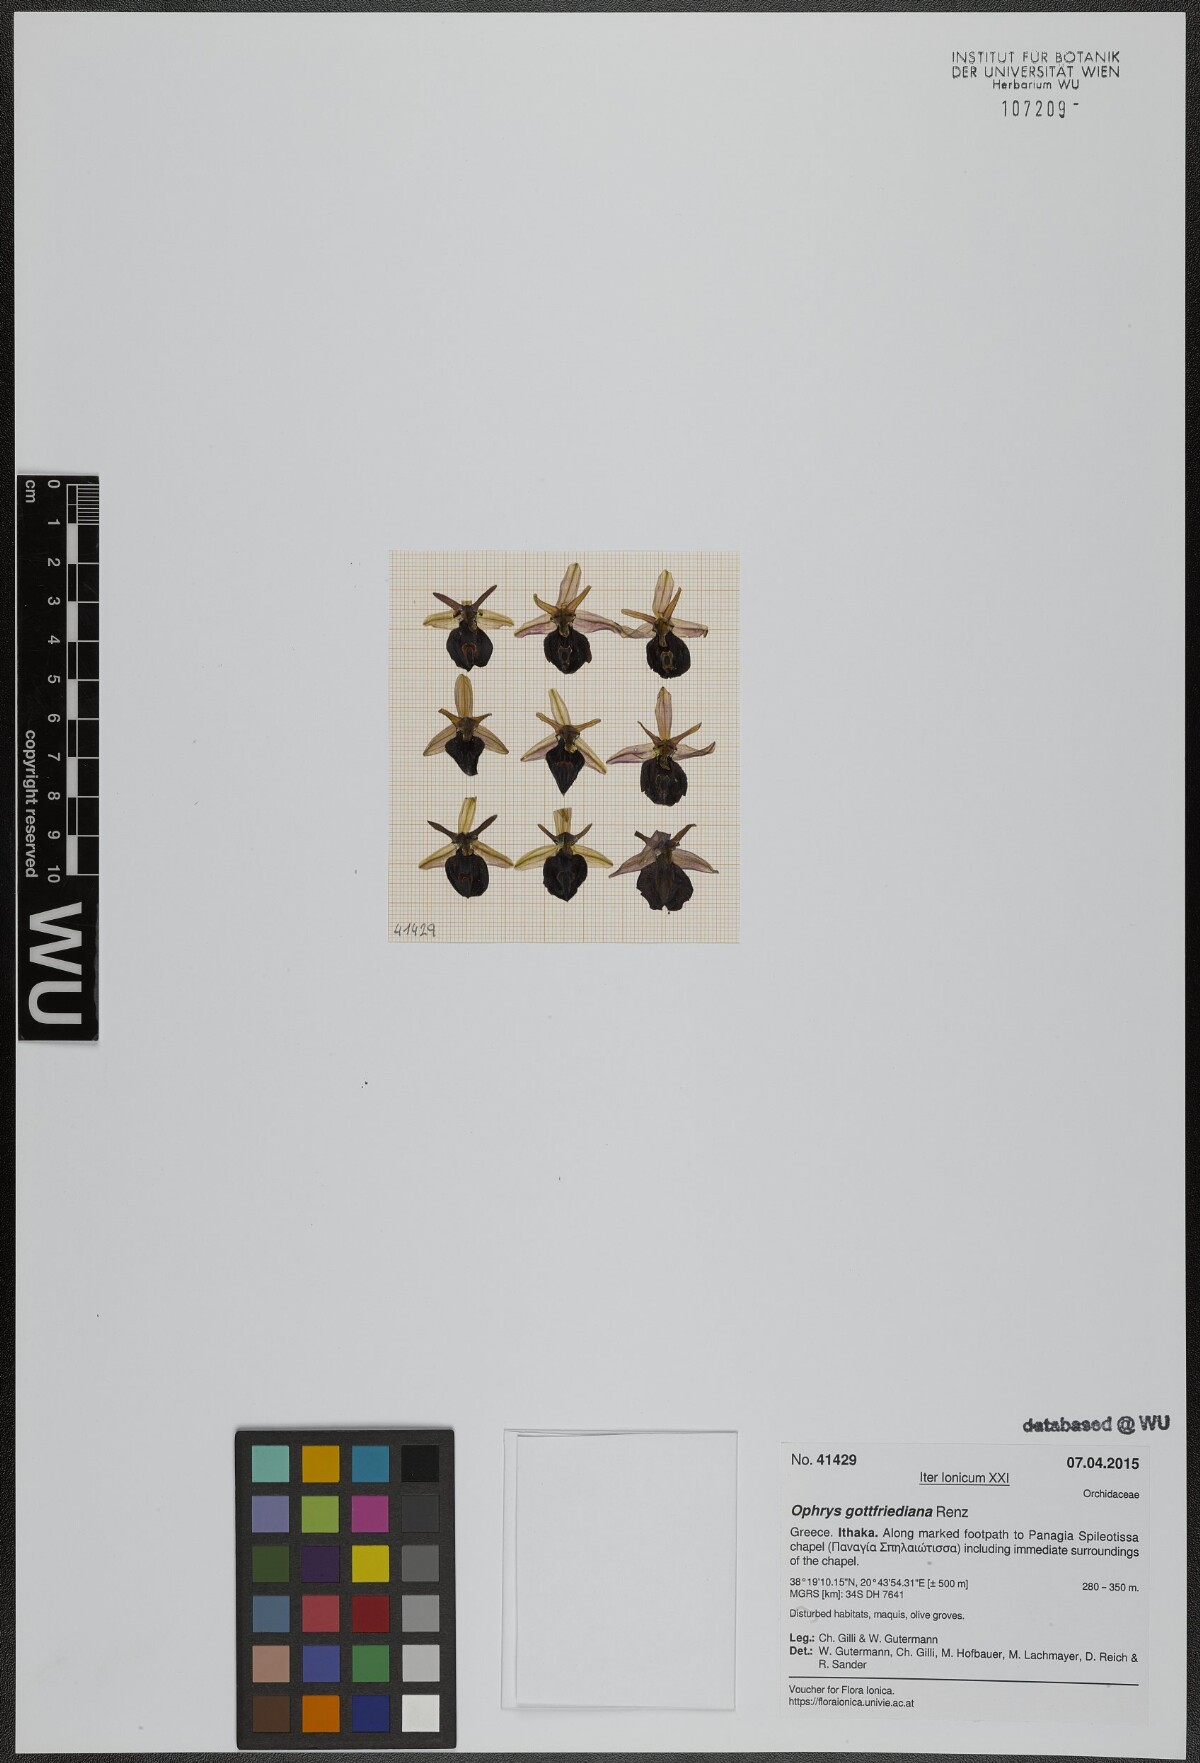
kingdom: Plantae
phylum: Tracheophyta
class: Liliopsida
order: Asparagales
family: Orchidaceae
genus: Ophrys
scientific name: Ophrys ferrum-equinum
